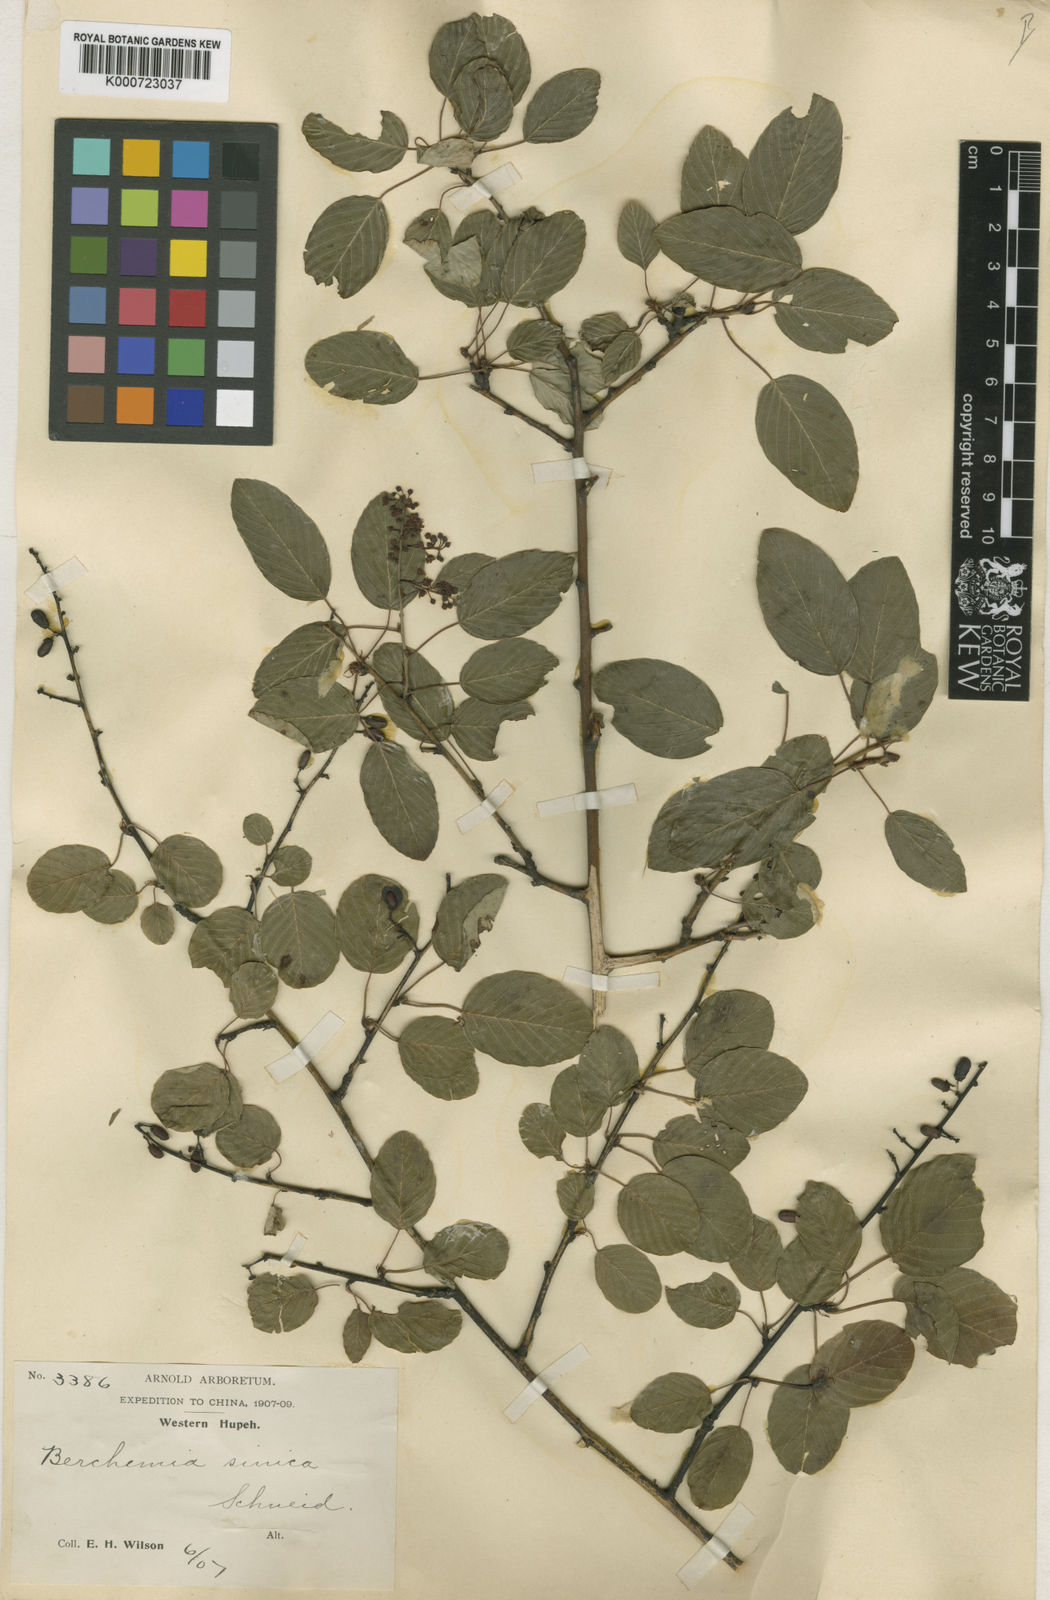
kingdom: Plantae
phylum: Tracheophyta
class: Magnoliopsida
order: Rosales
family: Rhamnaceae
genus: Berchemia
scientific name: Berchemia sinica
